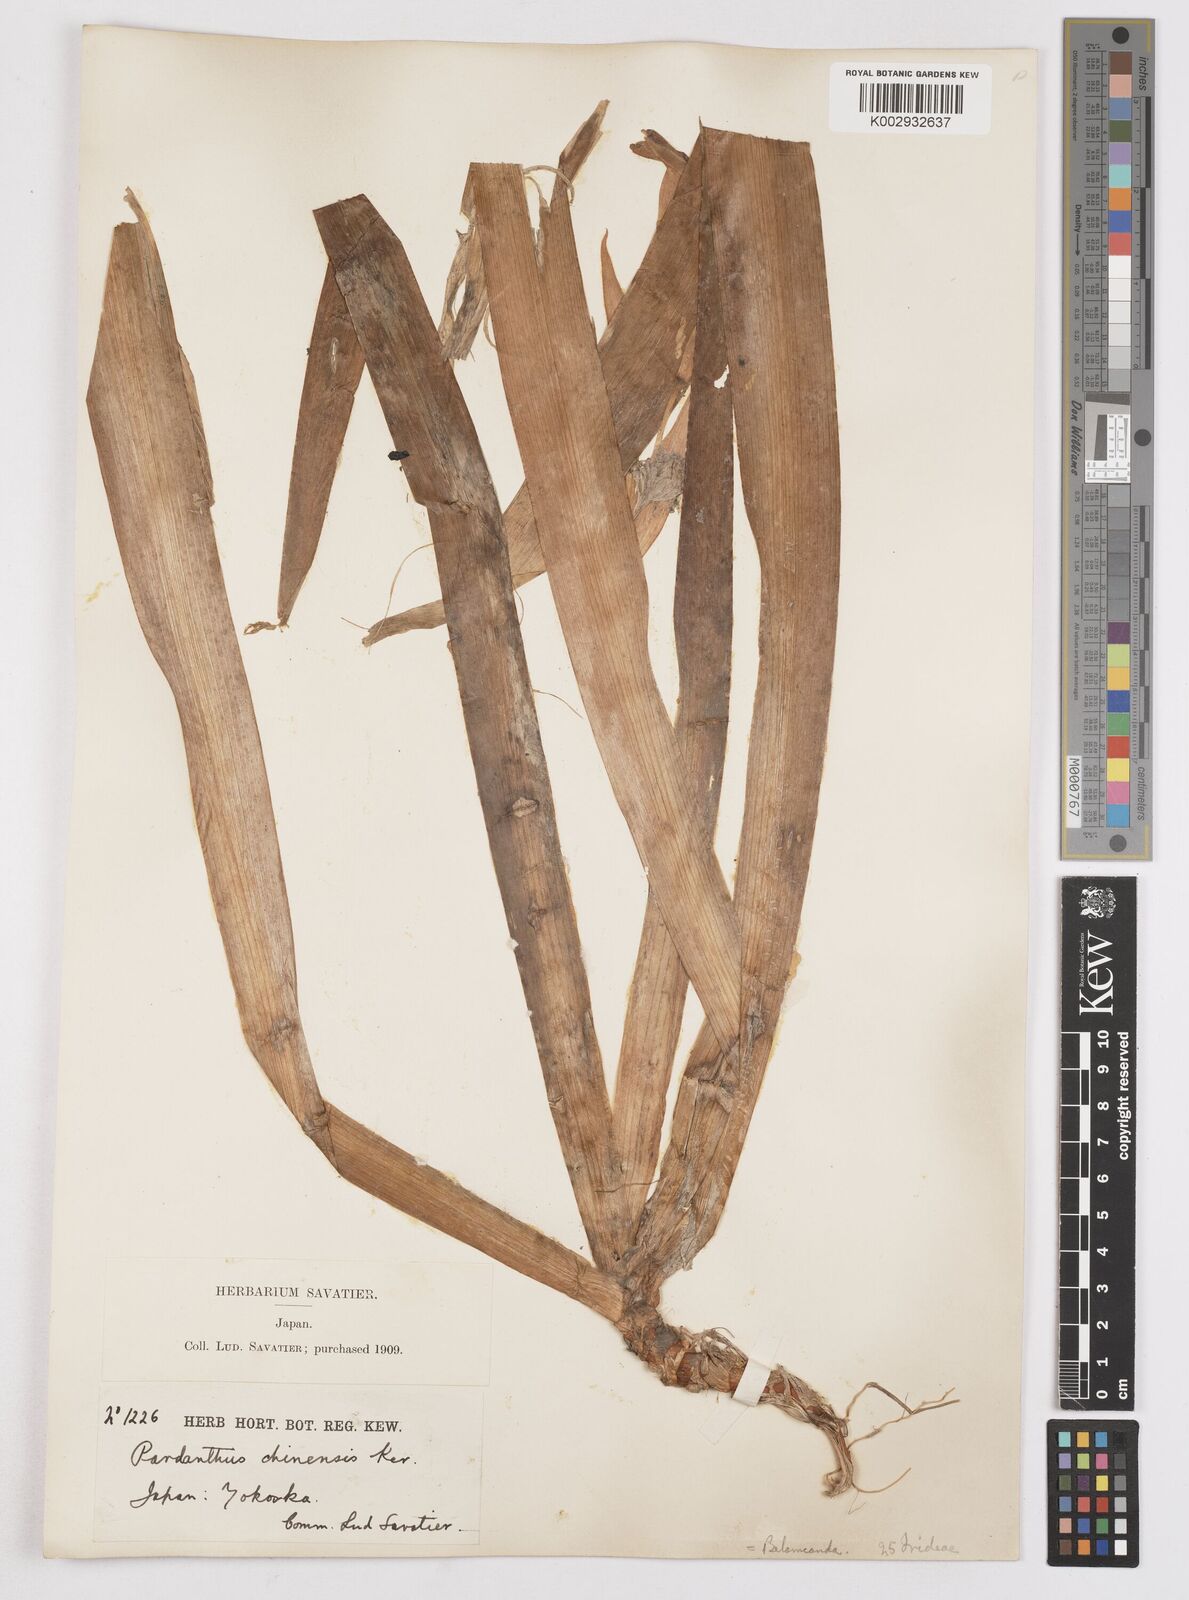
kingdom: Plantae
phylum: Tracheophyta
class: Liliopsida
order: Asparagales
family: Iridaceae
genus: Iris
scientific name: Iris
